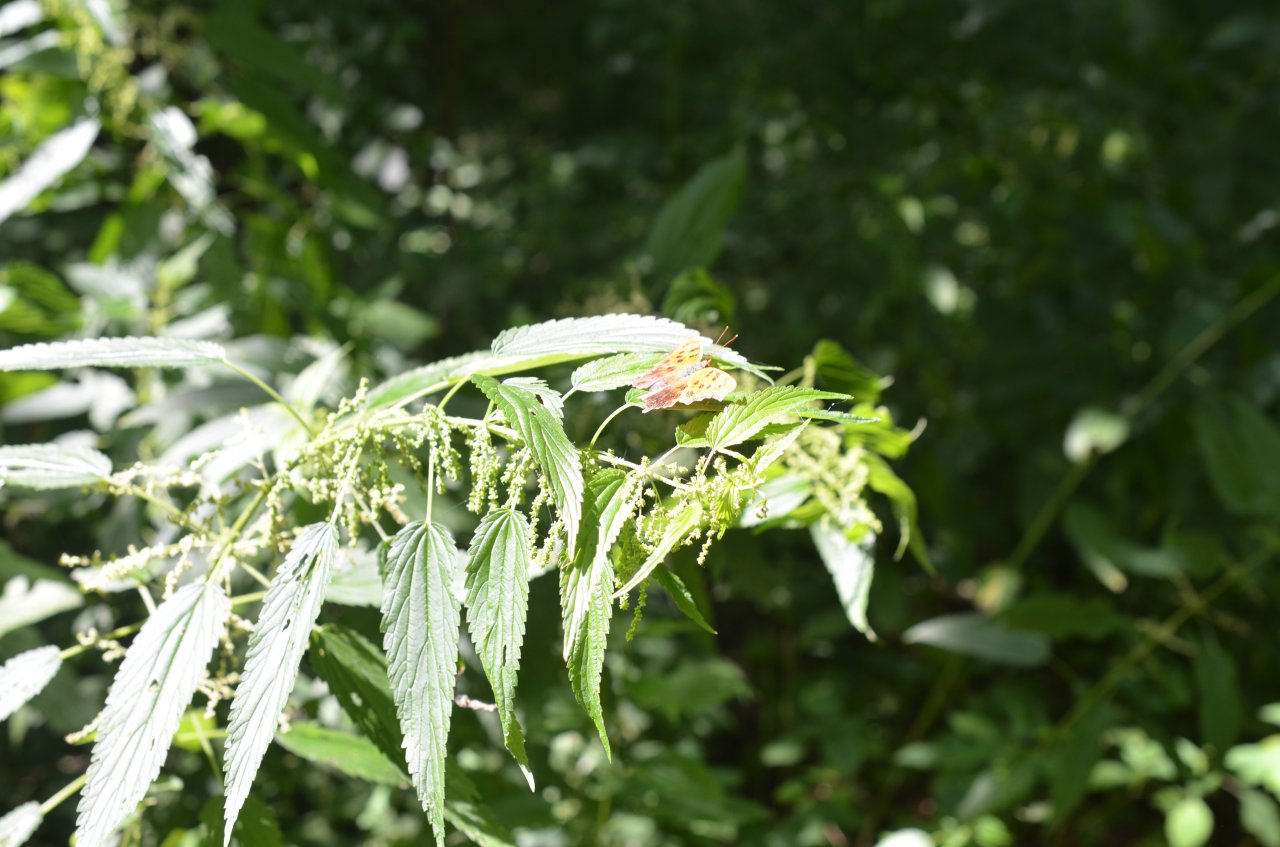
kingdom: Animalia
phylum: Arthropoda
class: Insecta
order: Lepidoptera
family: Nymphalidae
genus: Polygonia
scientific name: Polygonia comma
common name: Eastern Comma
